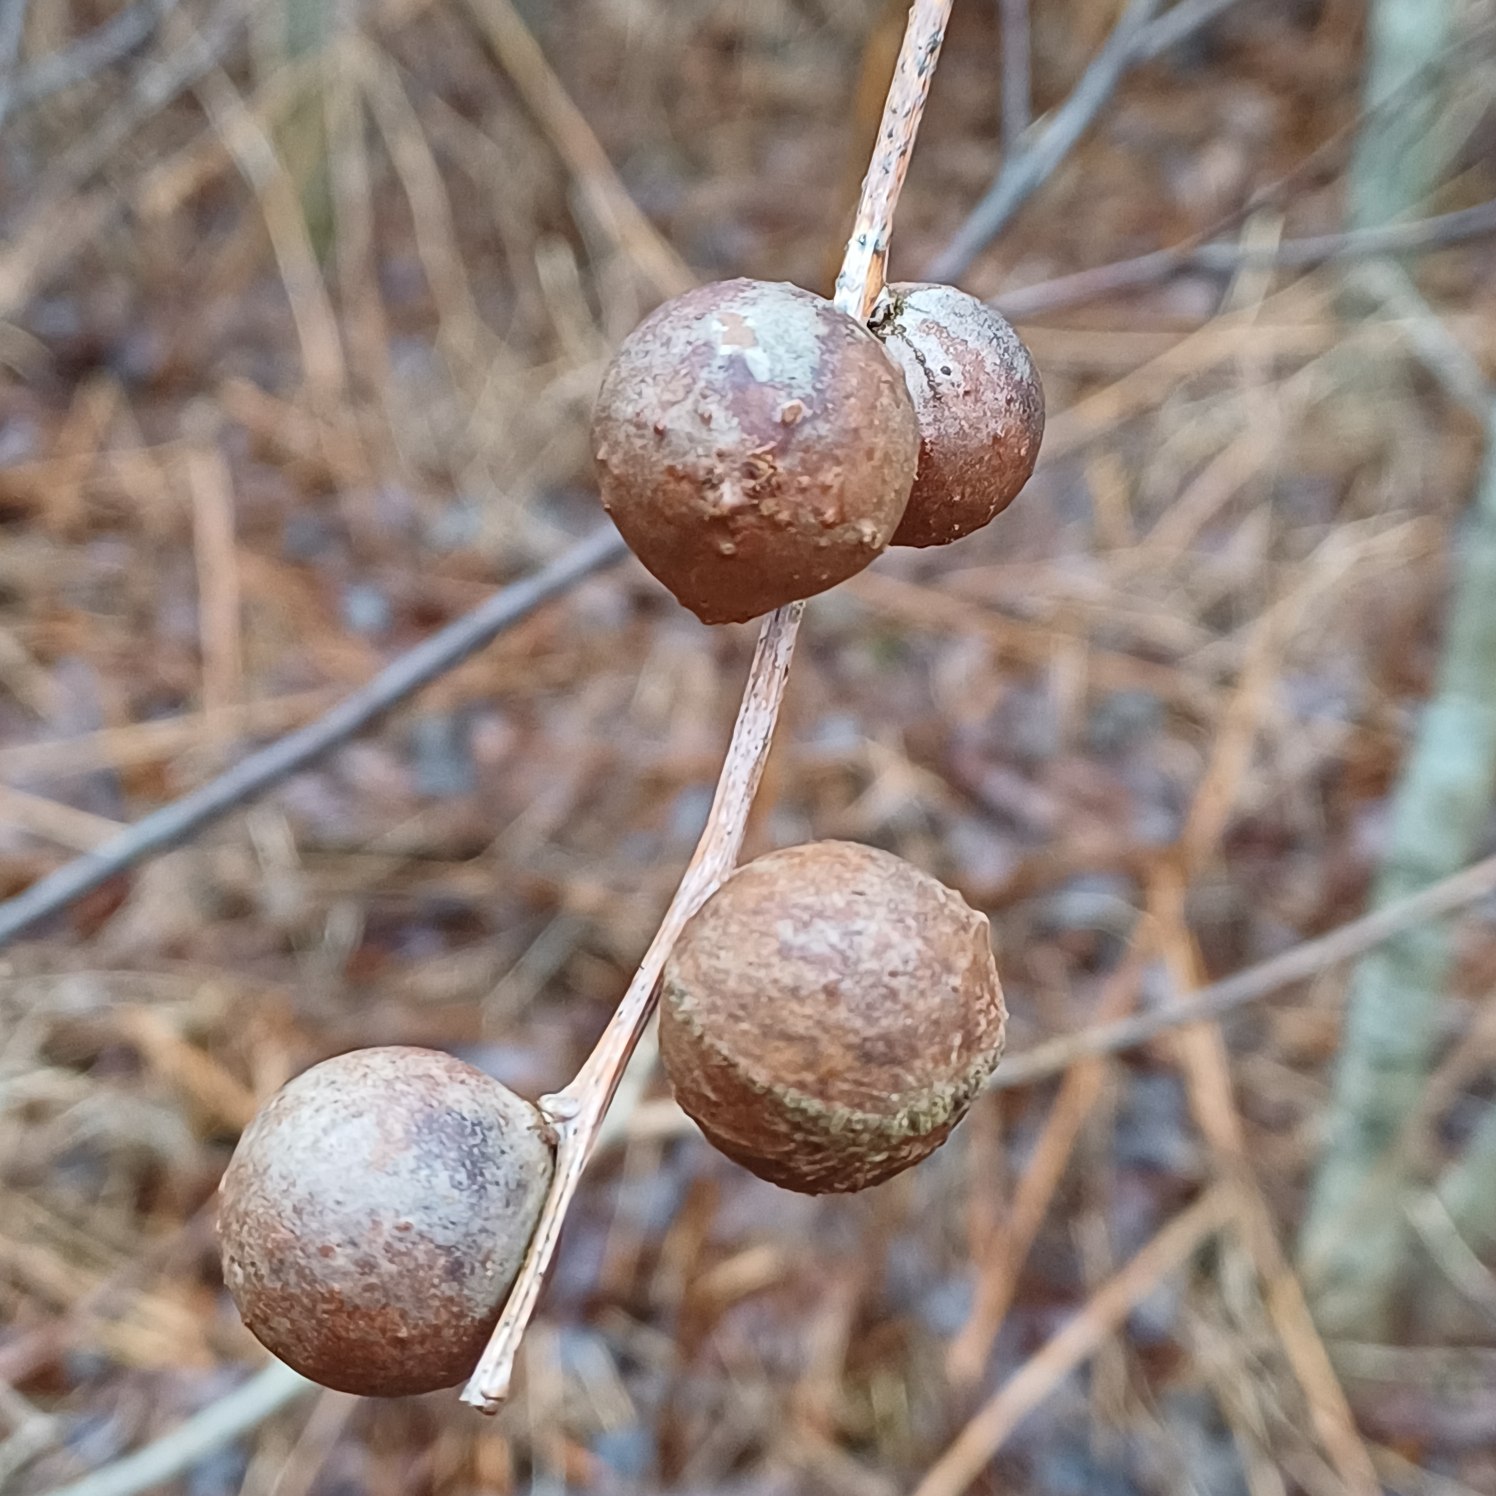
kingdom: Animalia
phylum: Arthropoda
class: Insecta
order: Hymenoptera
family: Cynipidae
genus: Andricus
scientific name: Andricus kollari
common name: Marmorkugle-galhveps
